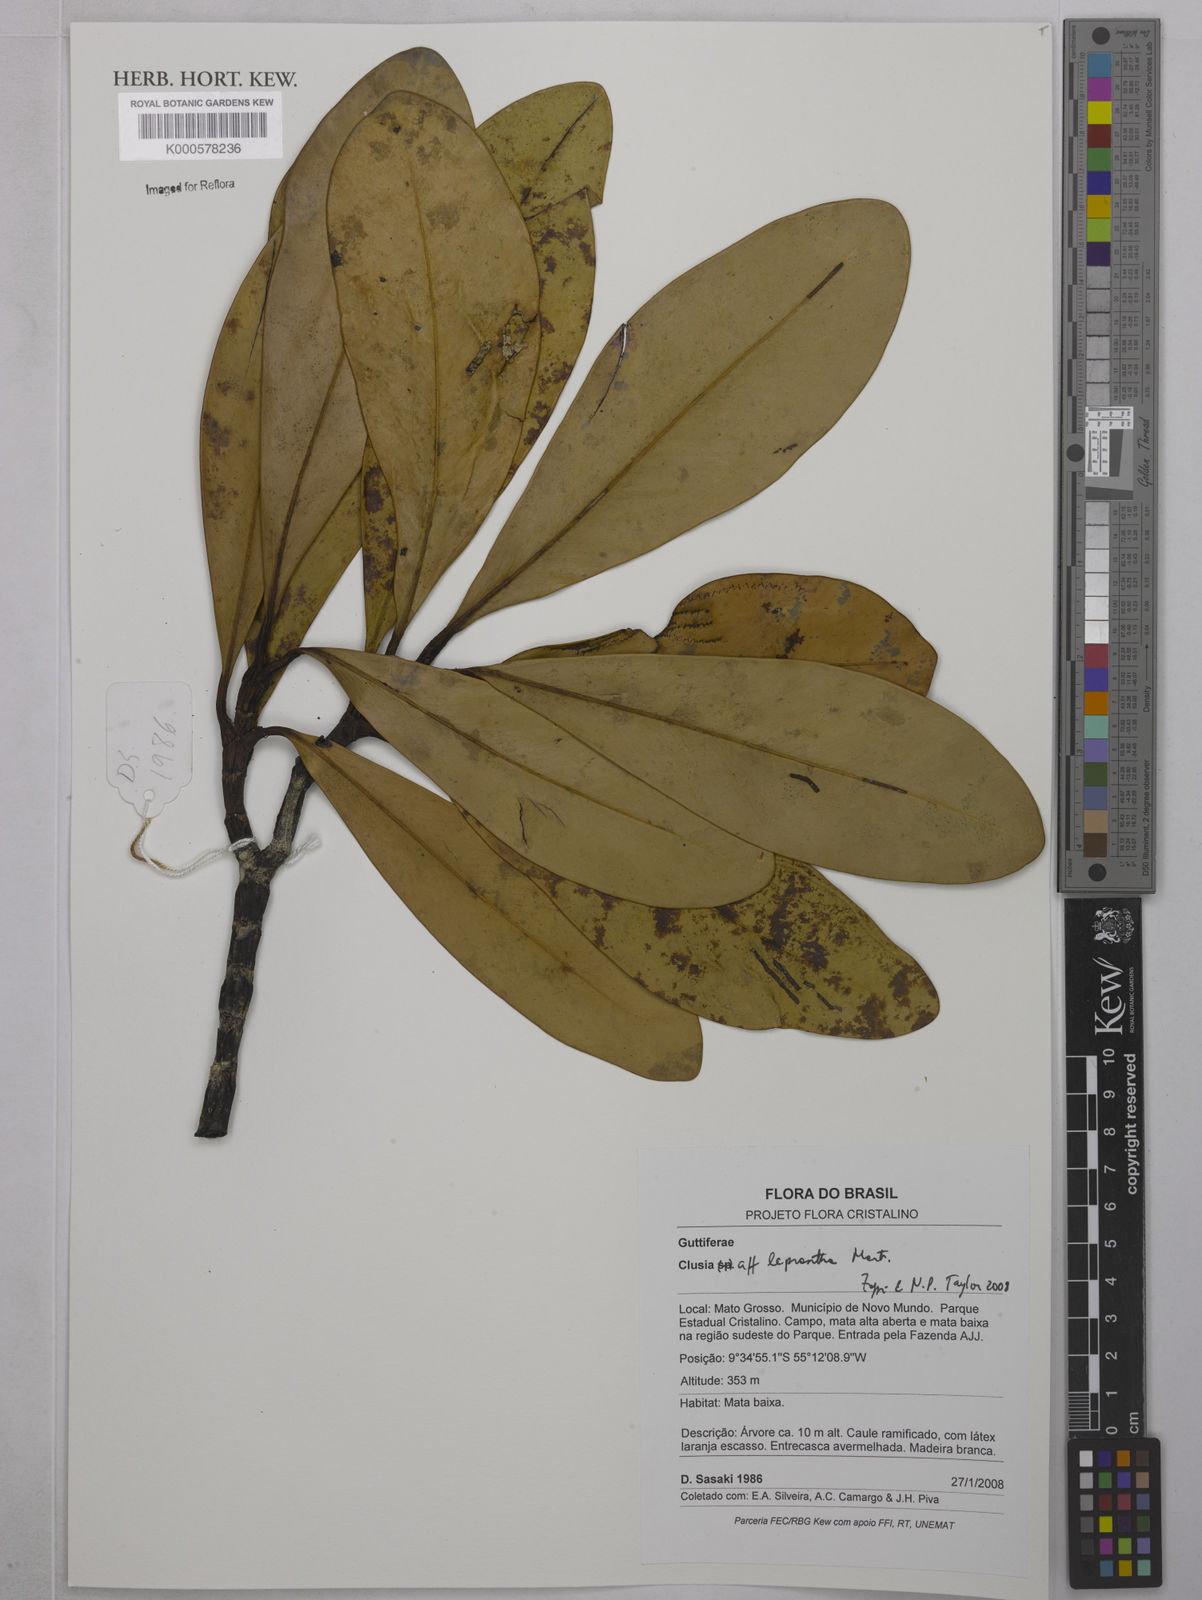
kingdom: Plantae
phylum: Tracheophyta
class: Magnoliopsida
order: Malpighiales
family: Clusiaceae
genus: Clusia
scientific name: Clusia leprantha
